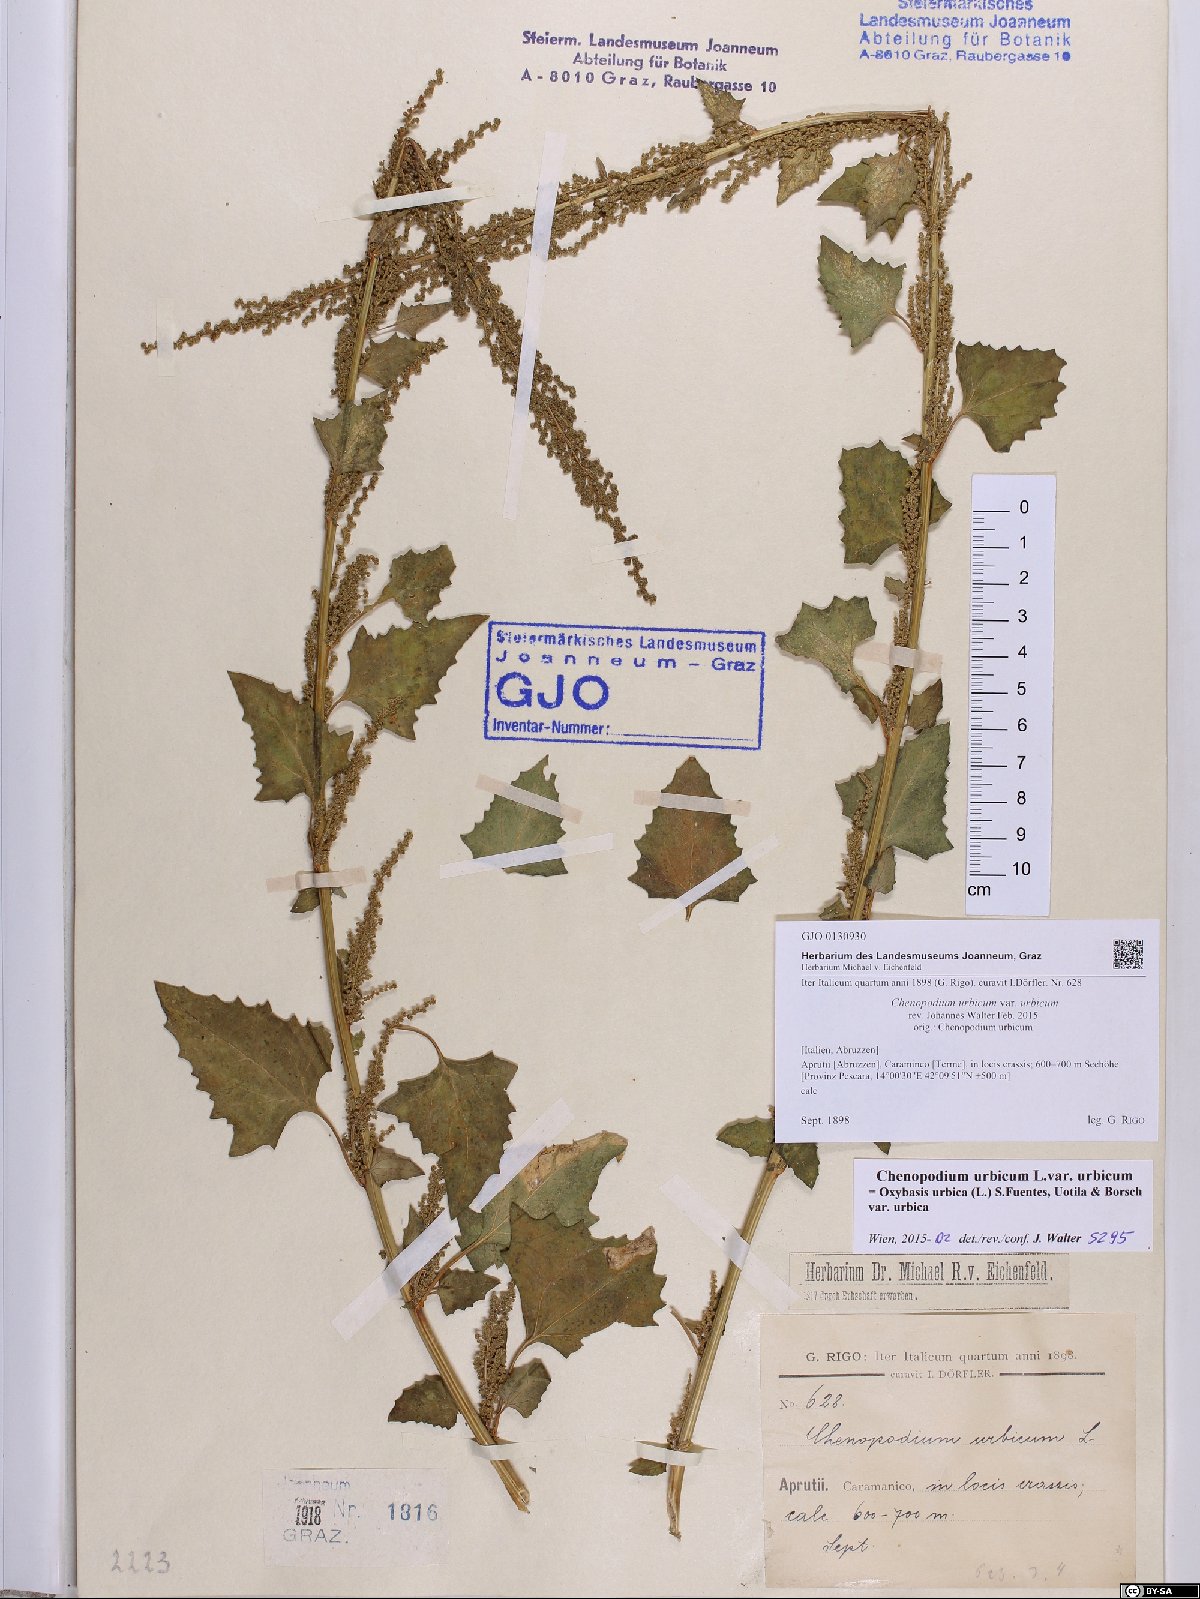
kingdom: Plantae
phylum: Tracheophyta
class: Magnoliopsida
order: Caryophyllales
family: Amaranthaceae
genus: Oxybasis
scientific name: Oxybasis urbica
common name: City goosefoot
